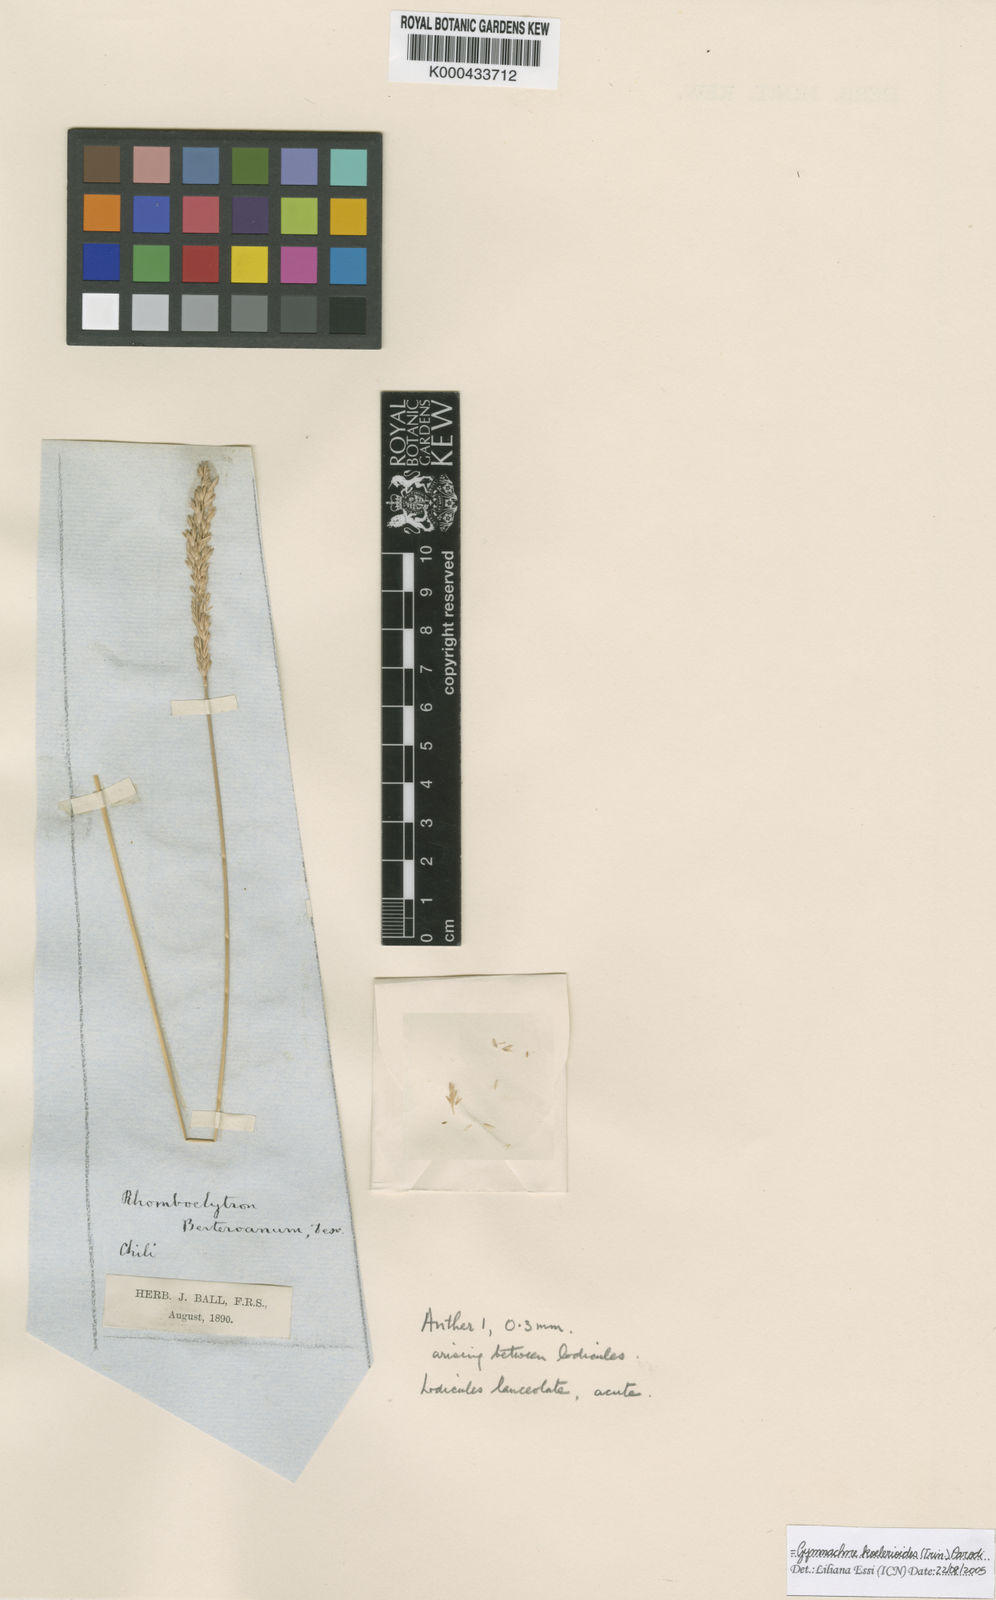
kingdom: Plantae
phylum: Tracheophyta
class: Liliopsida
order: Poales
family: Poaceae
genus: Rhombolytrum
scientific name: Rhombolytrum
